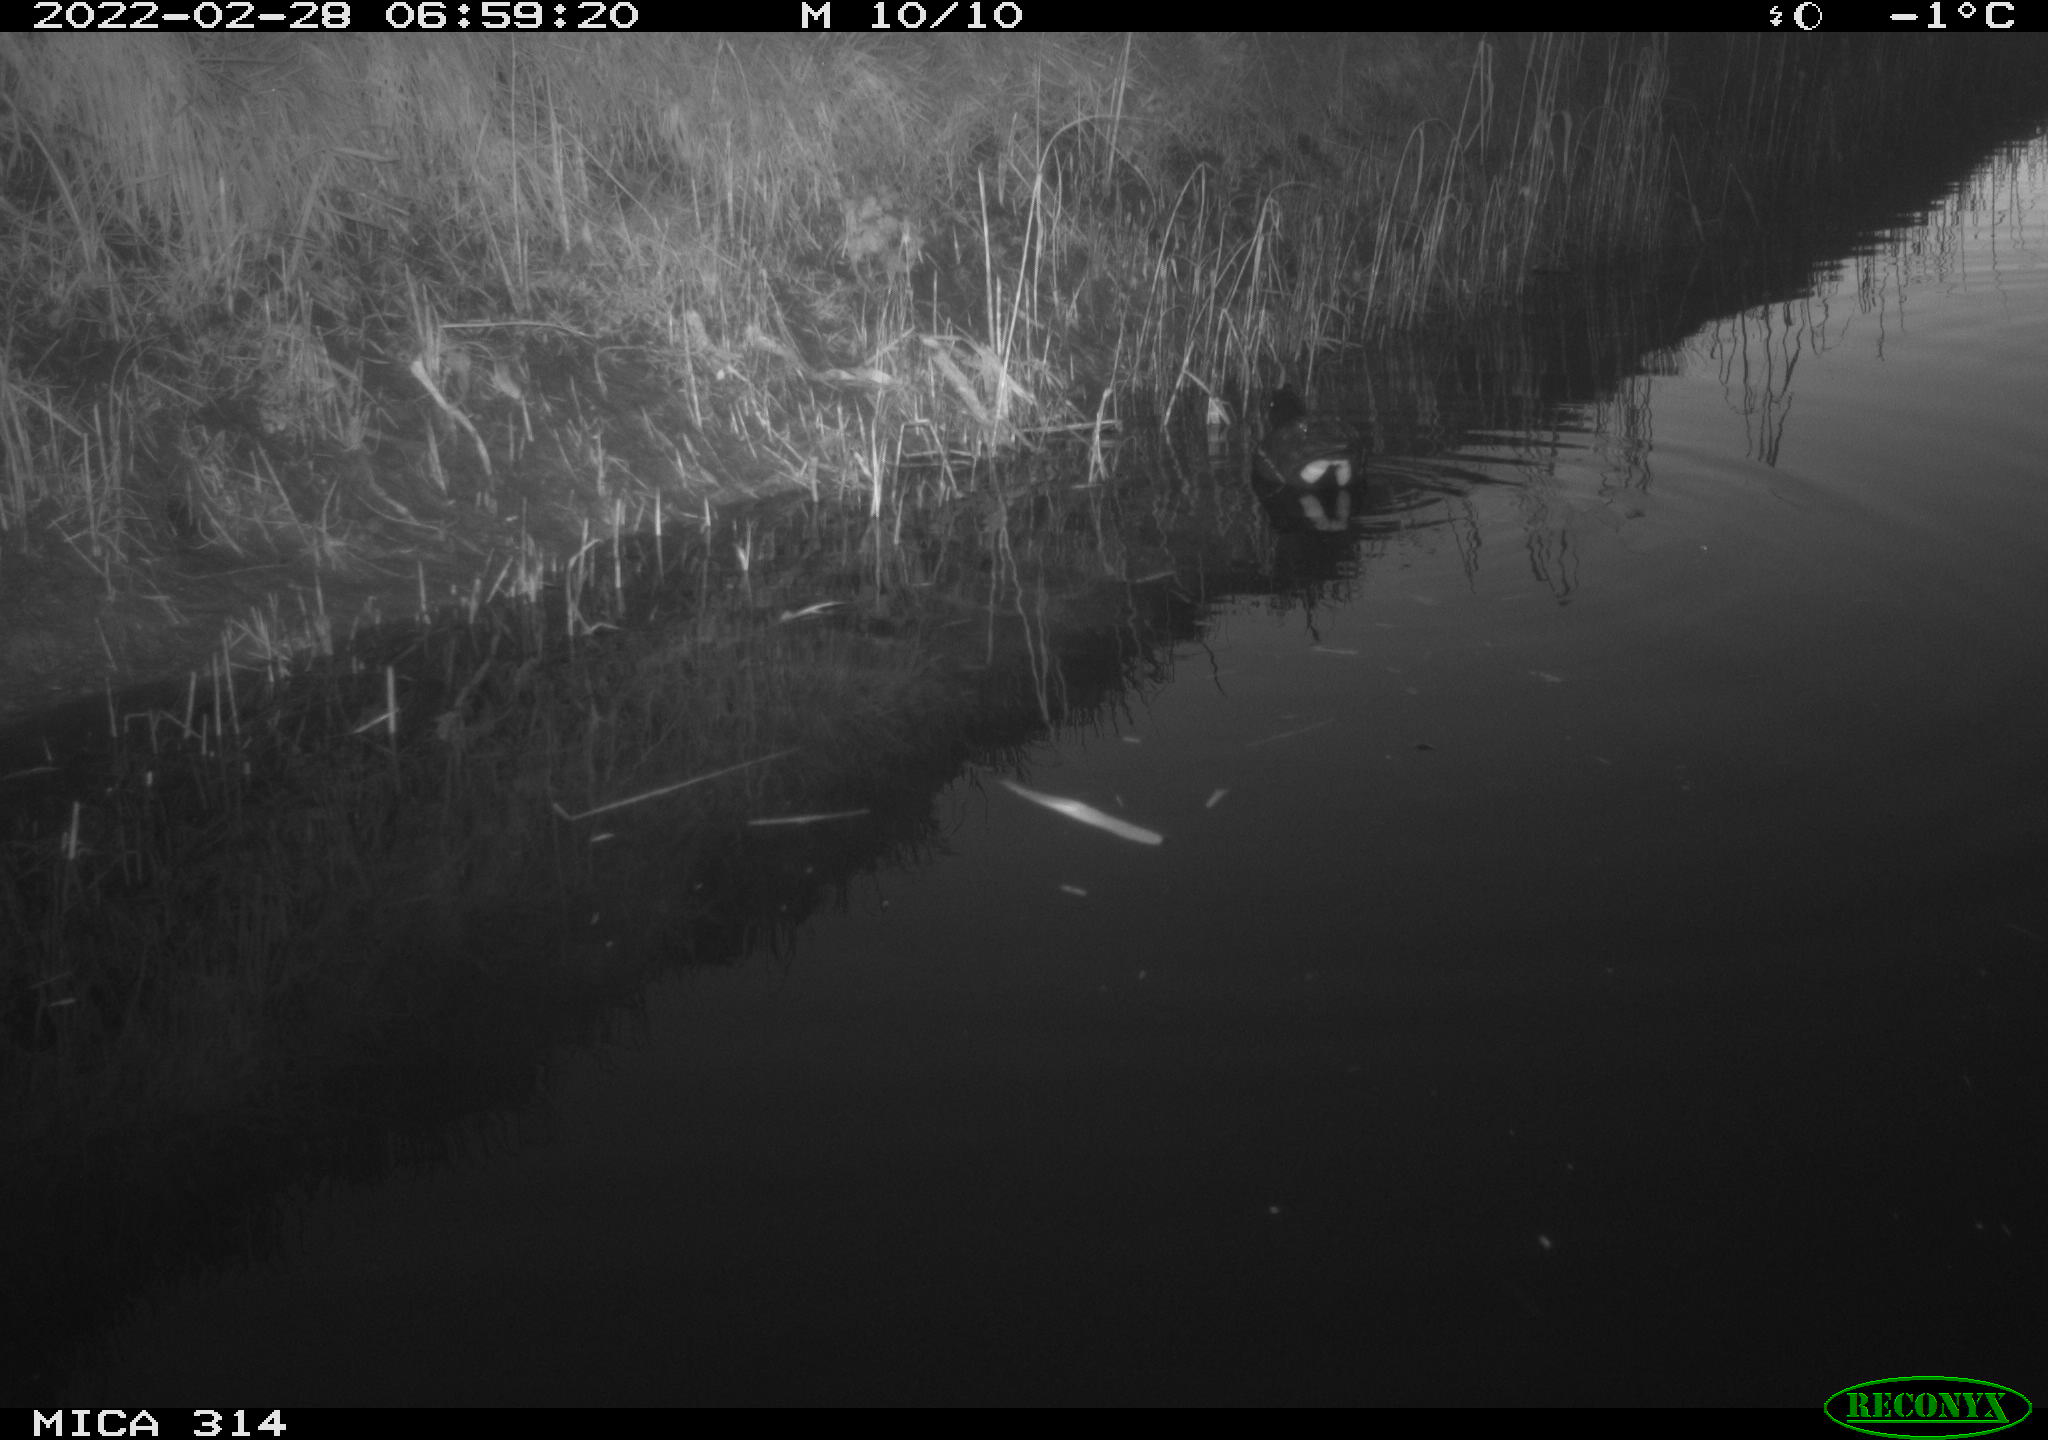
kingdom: Animalia
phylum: Chordata
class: Aves
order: Gruiformes
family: Rallidae
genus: Gallinula
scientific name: Gallinula chloropus
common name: Common moorhen
